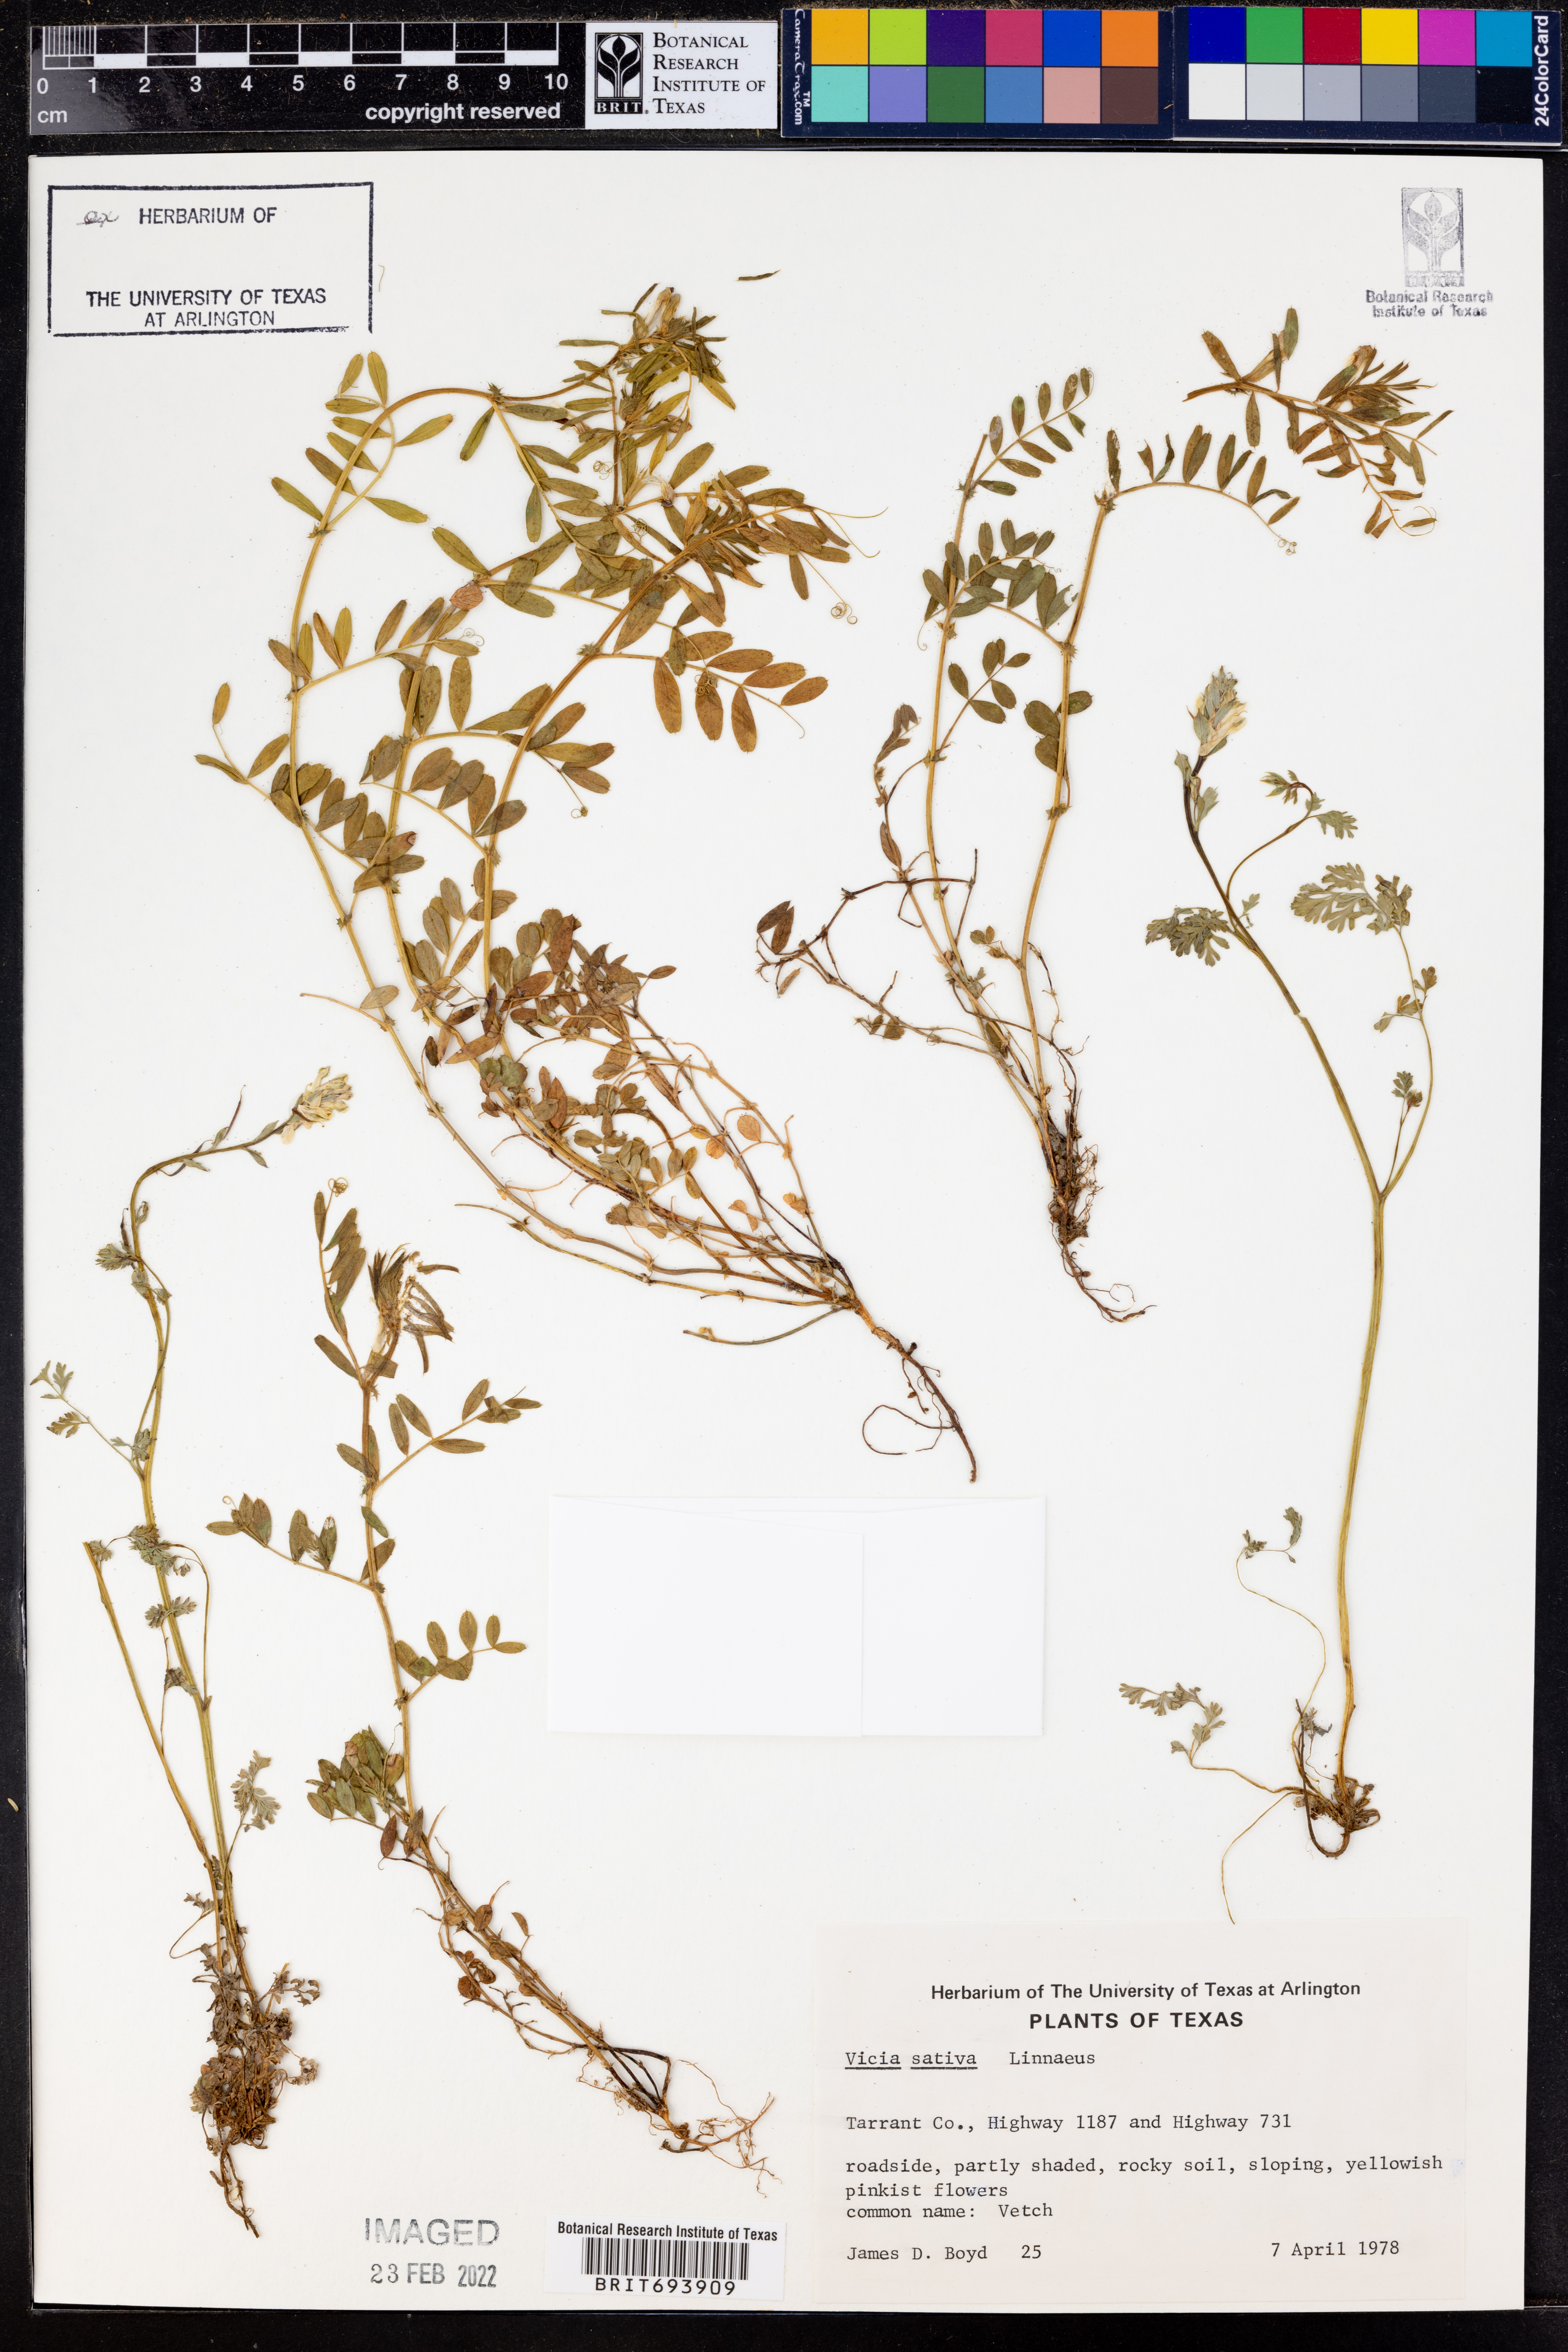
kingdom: Plantae
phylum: Tracheophyta
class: Magnoliopsida
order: Fabales
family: Fabaceae
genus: Vicia
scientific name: Vicia sativa
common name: Garden vetch
